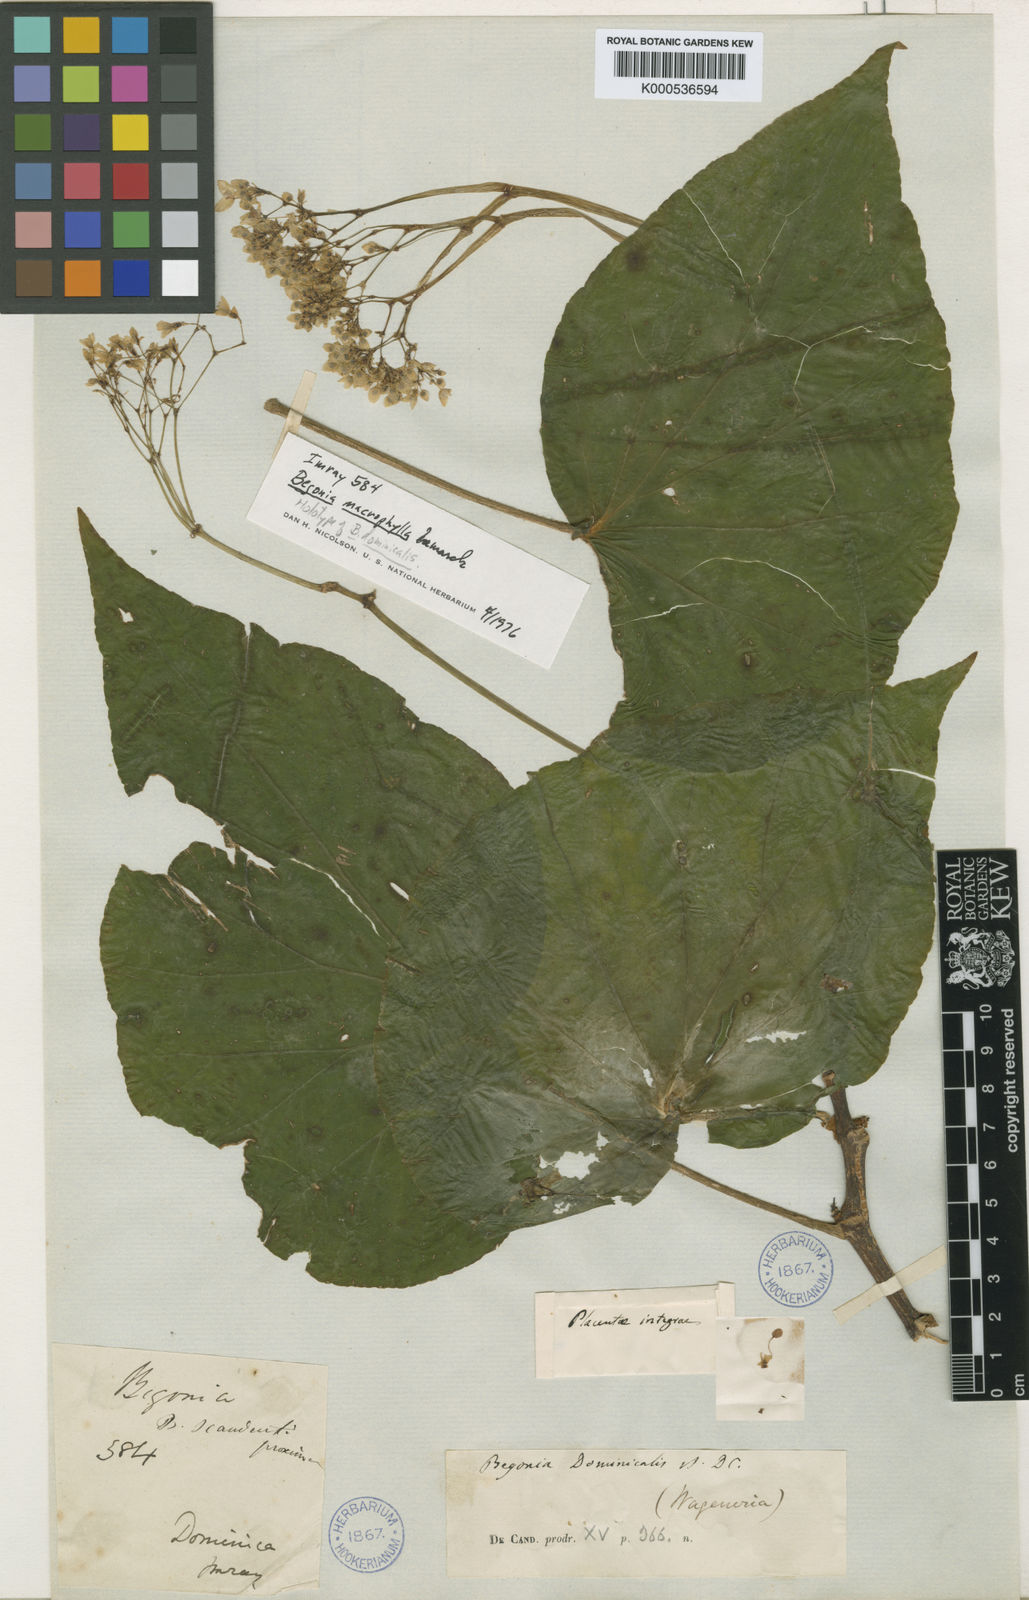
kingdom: Plantae
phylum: Tracheophyta
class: Magnoliopsida
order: Cucurbitales
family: Begoniaceae
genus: Begonia
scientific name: Begonia
